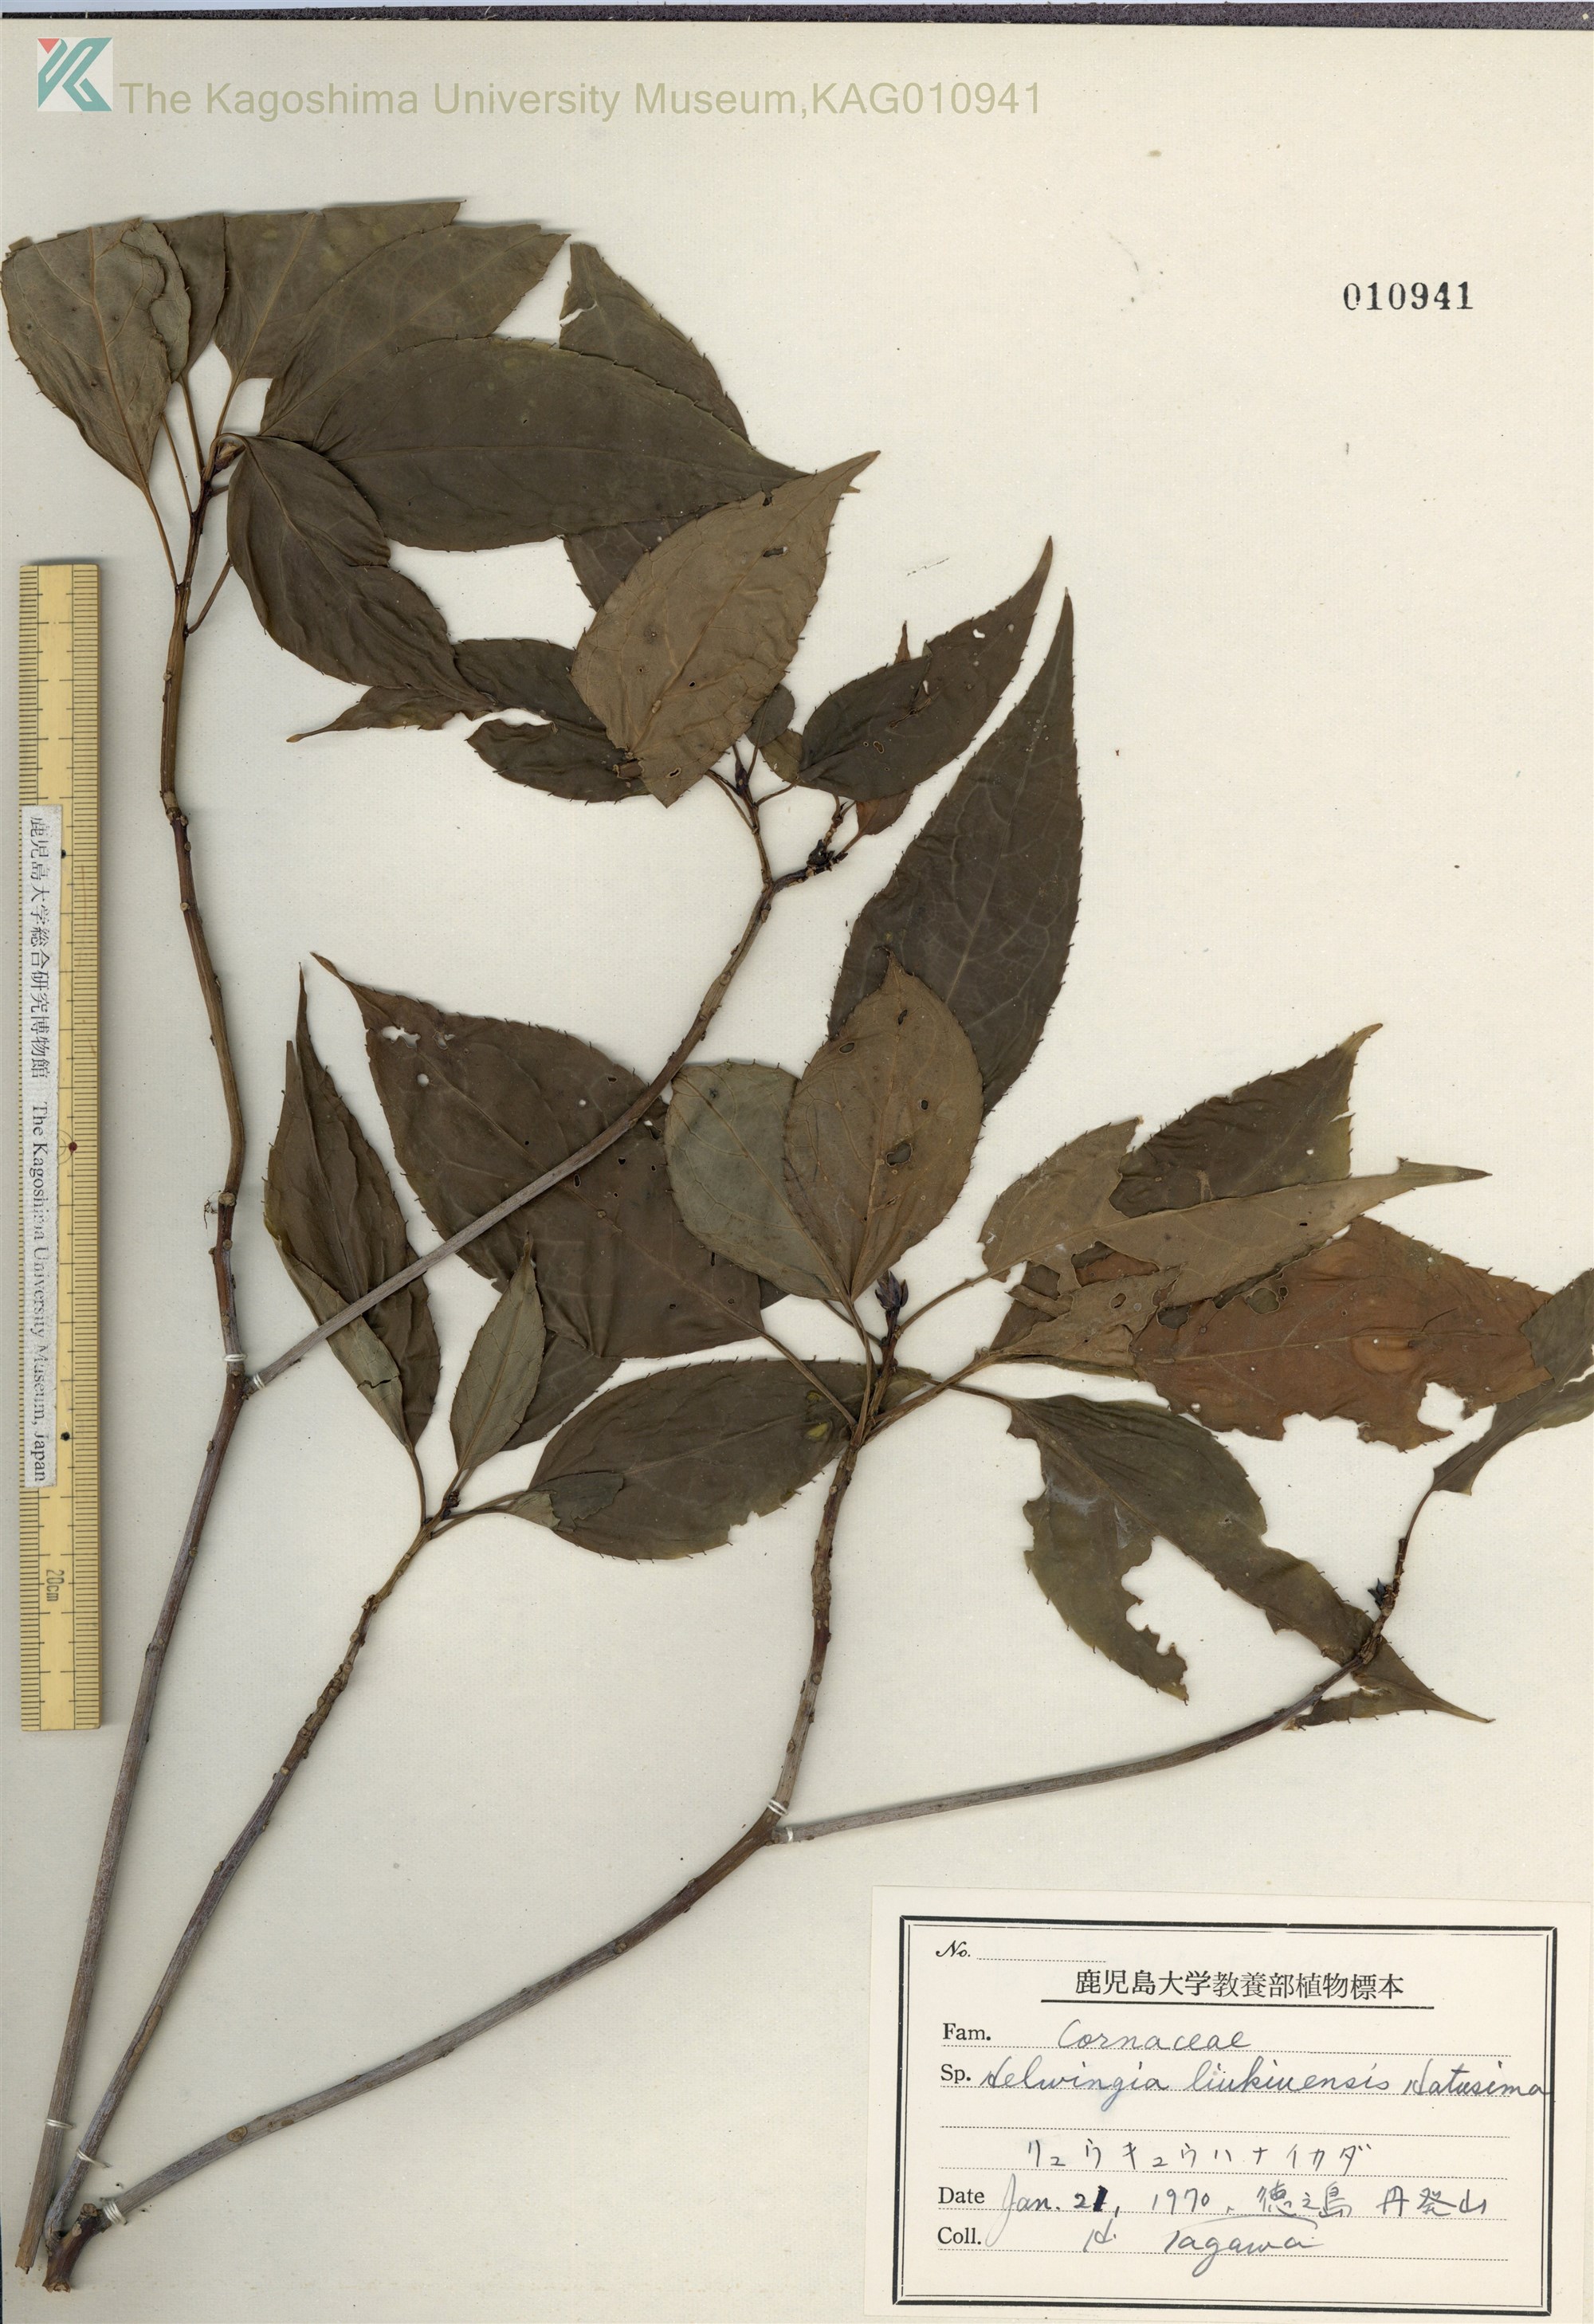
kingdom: Plantae
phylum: Tracheophyta
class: Magnoliopsida
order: Aquifoliales
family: Helwingiaceae
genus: Helwingia
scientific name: Helwingia japonica
